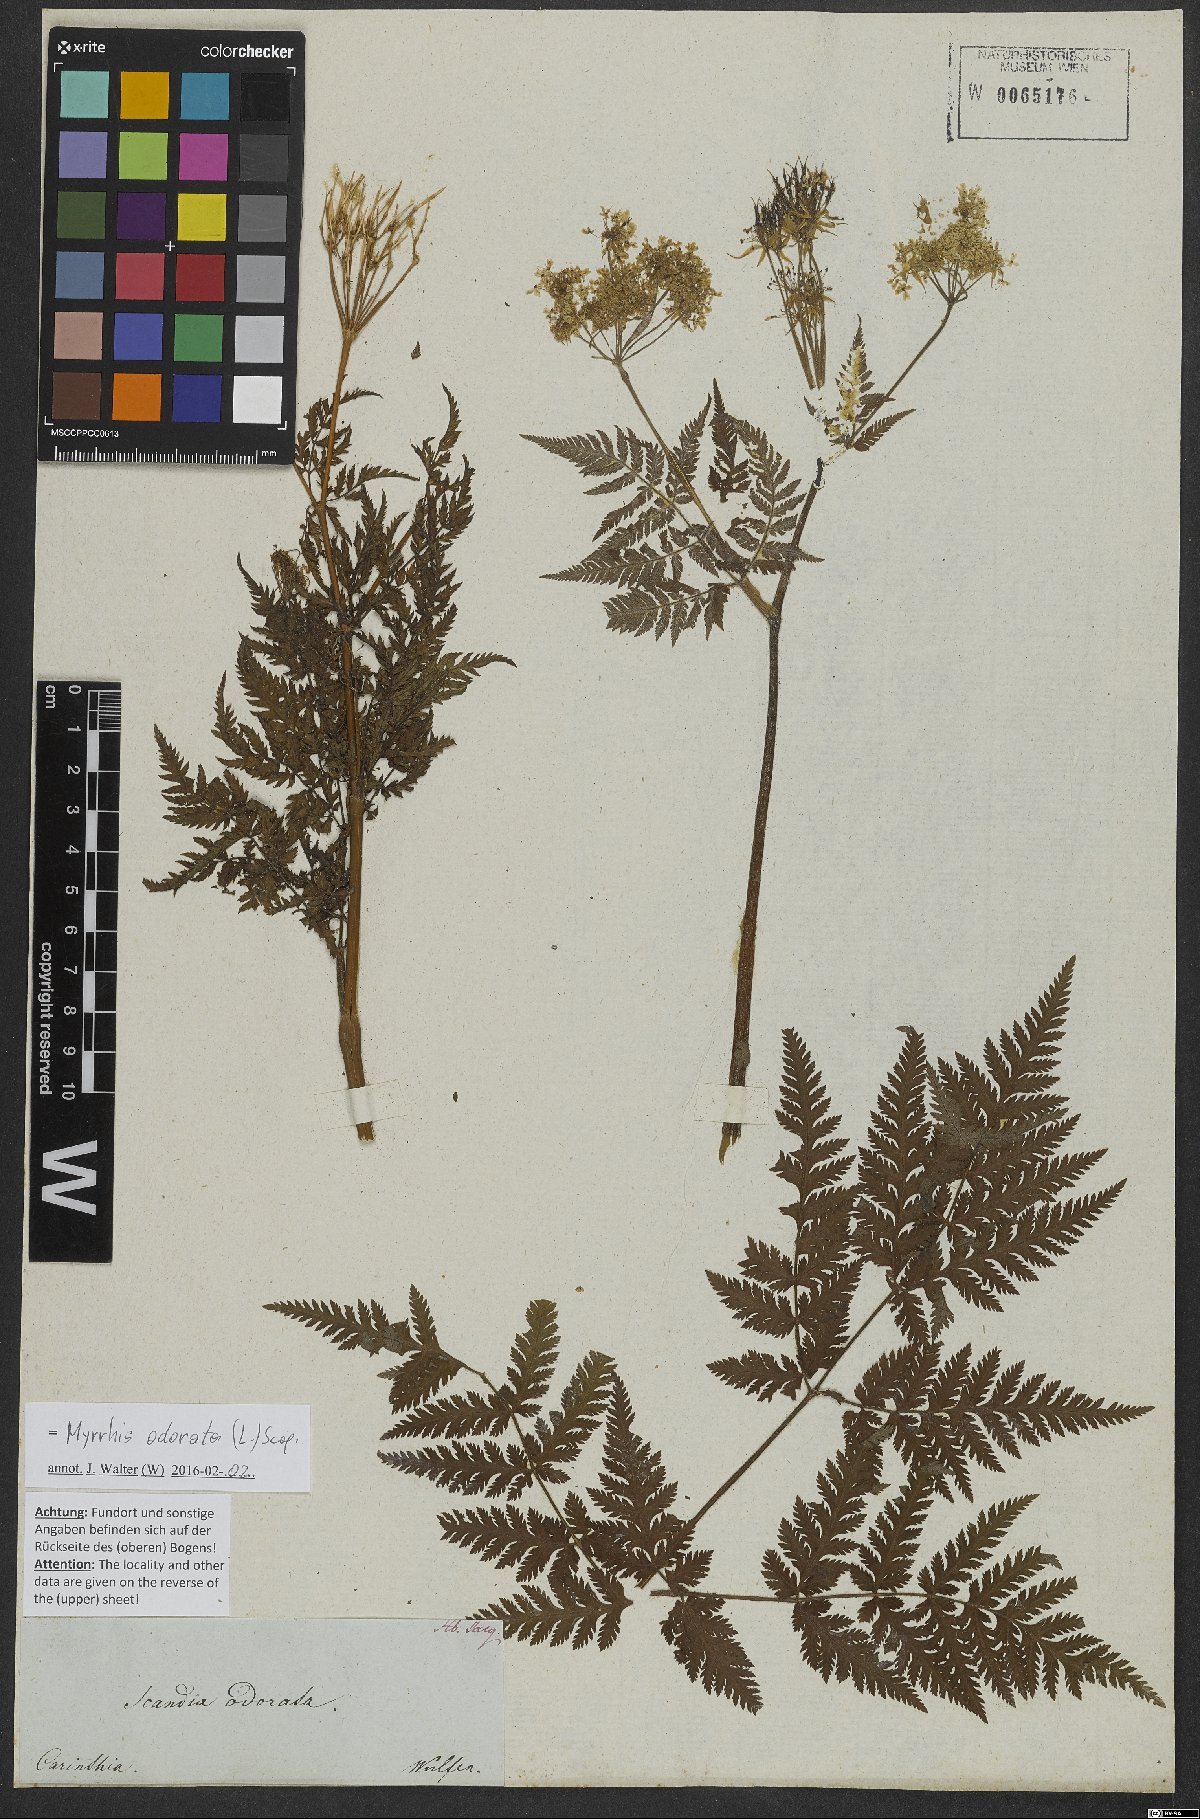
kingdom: Plantae
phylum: Tracheophyta
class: Magnoliopsida
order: Apiales
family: Apiaceae
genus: Myrrhis
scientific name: Myrrhis odorata
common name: Sweet cicely
